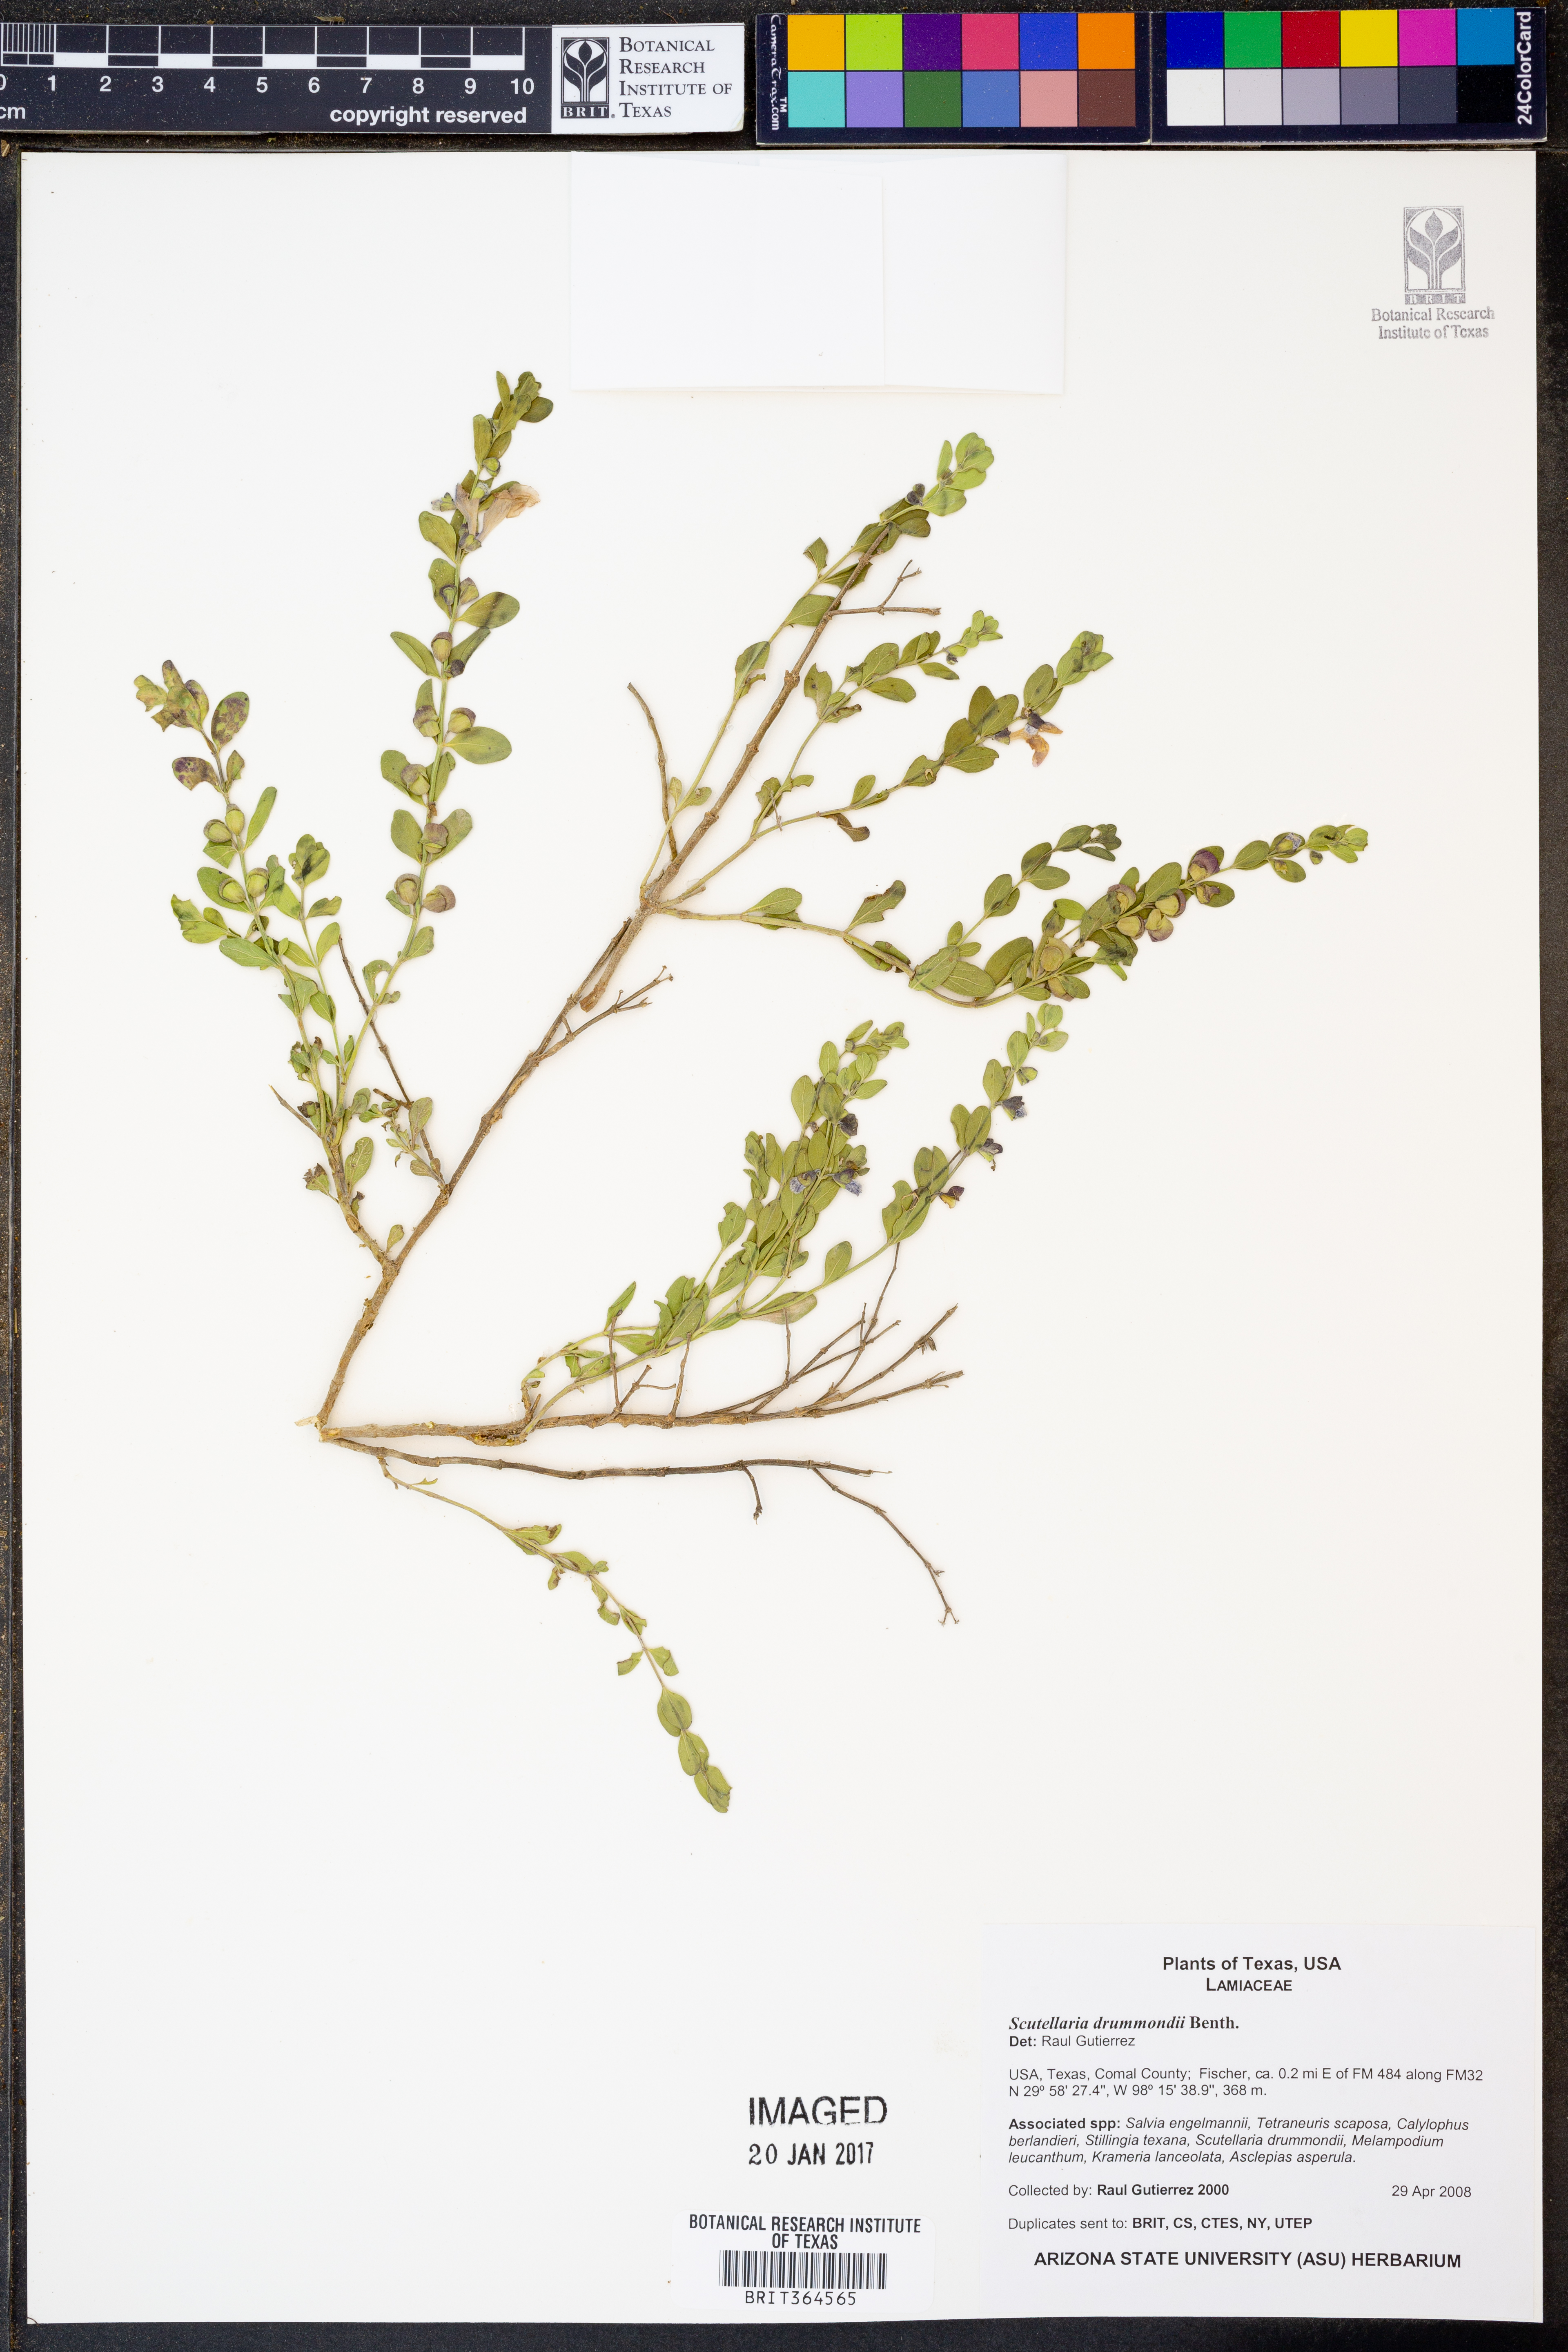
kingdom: Plantae
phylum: Tracheophyta
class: Magnoliopsida
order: Lamiales
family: Lamiaceae
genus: Scutellaria
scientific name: Scutellaria drummondii
